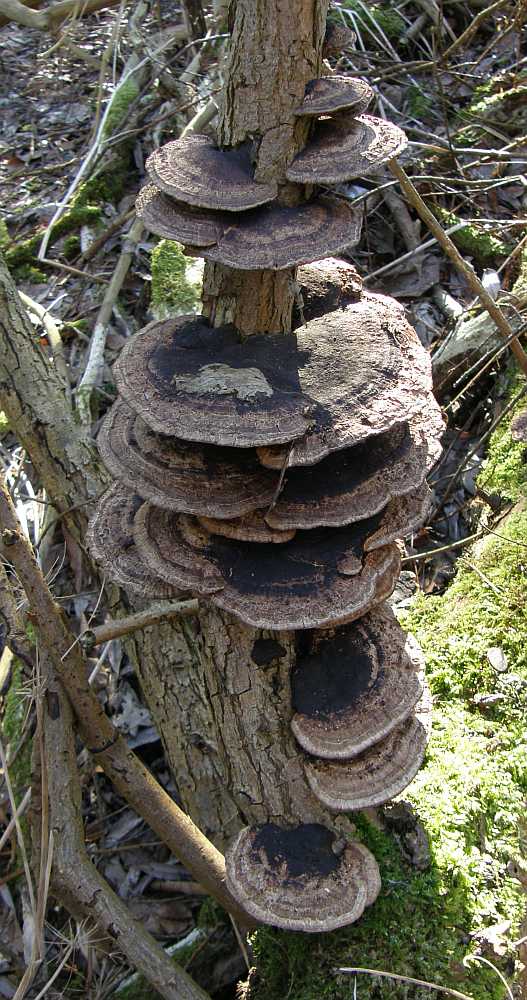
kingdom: Fungi
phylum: Basidiomycota
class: Agaricomycetes
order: Polyporales
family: Polyporaceae
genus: Daedaleopsis
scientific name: Daedaleopsis confragosa
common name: rødmende læderporesvamp
